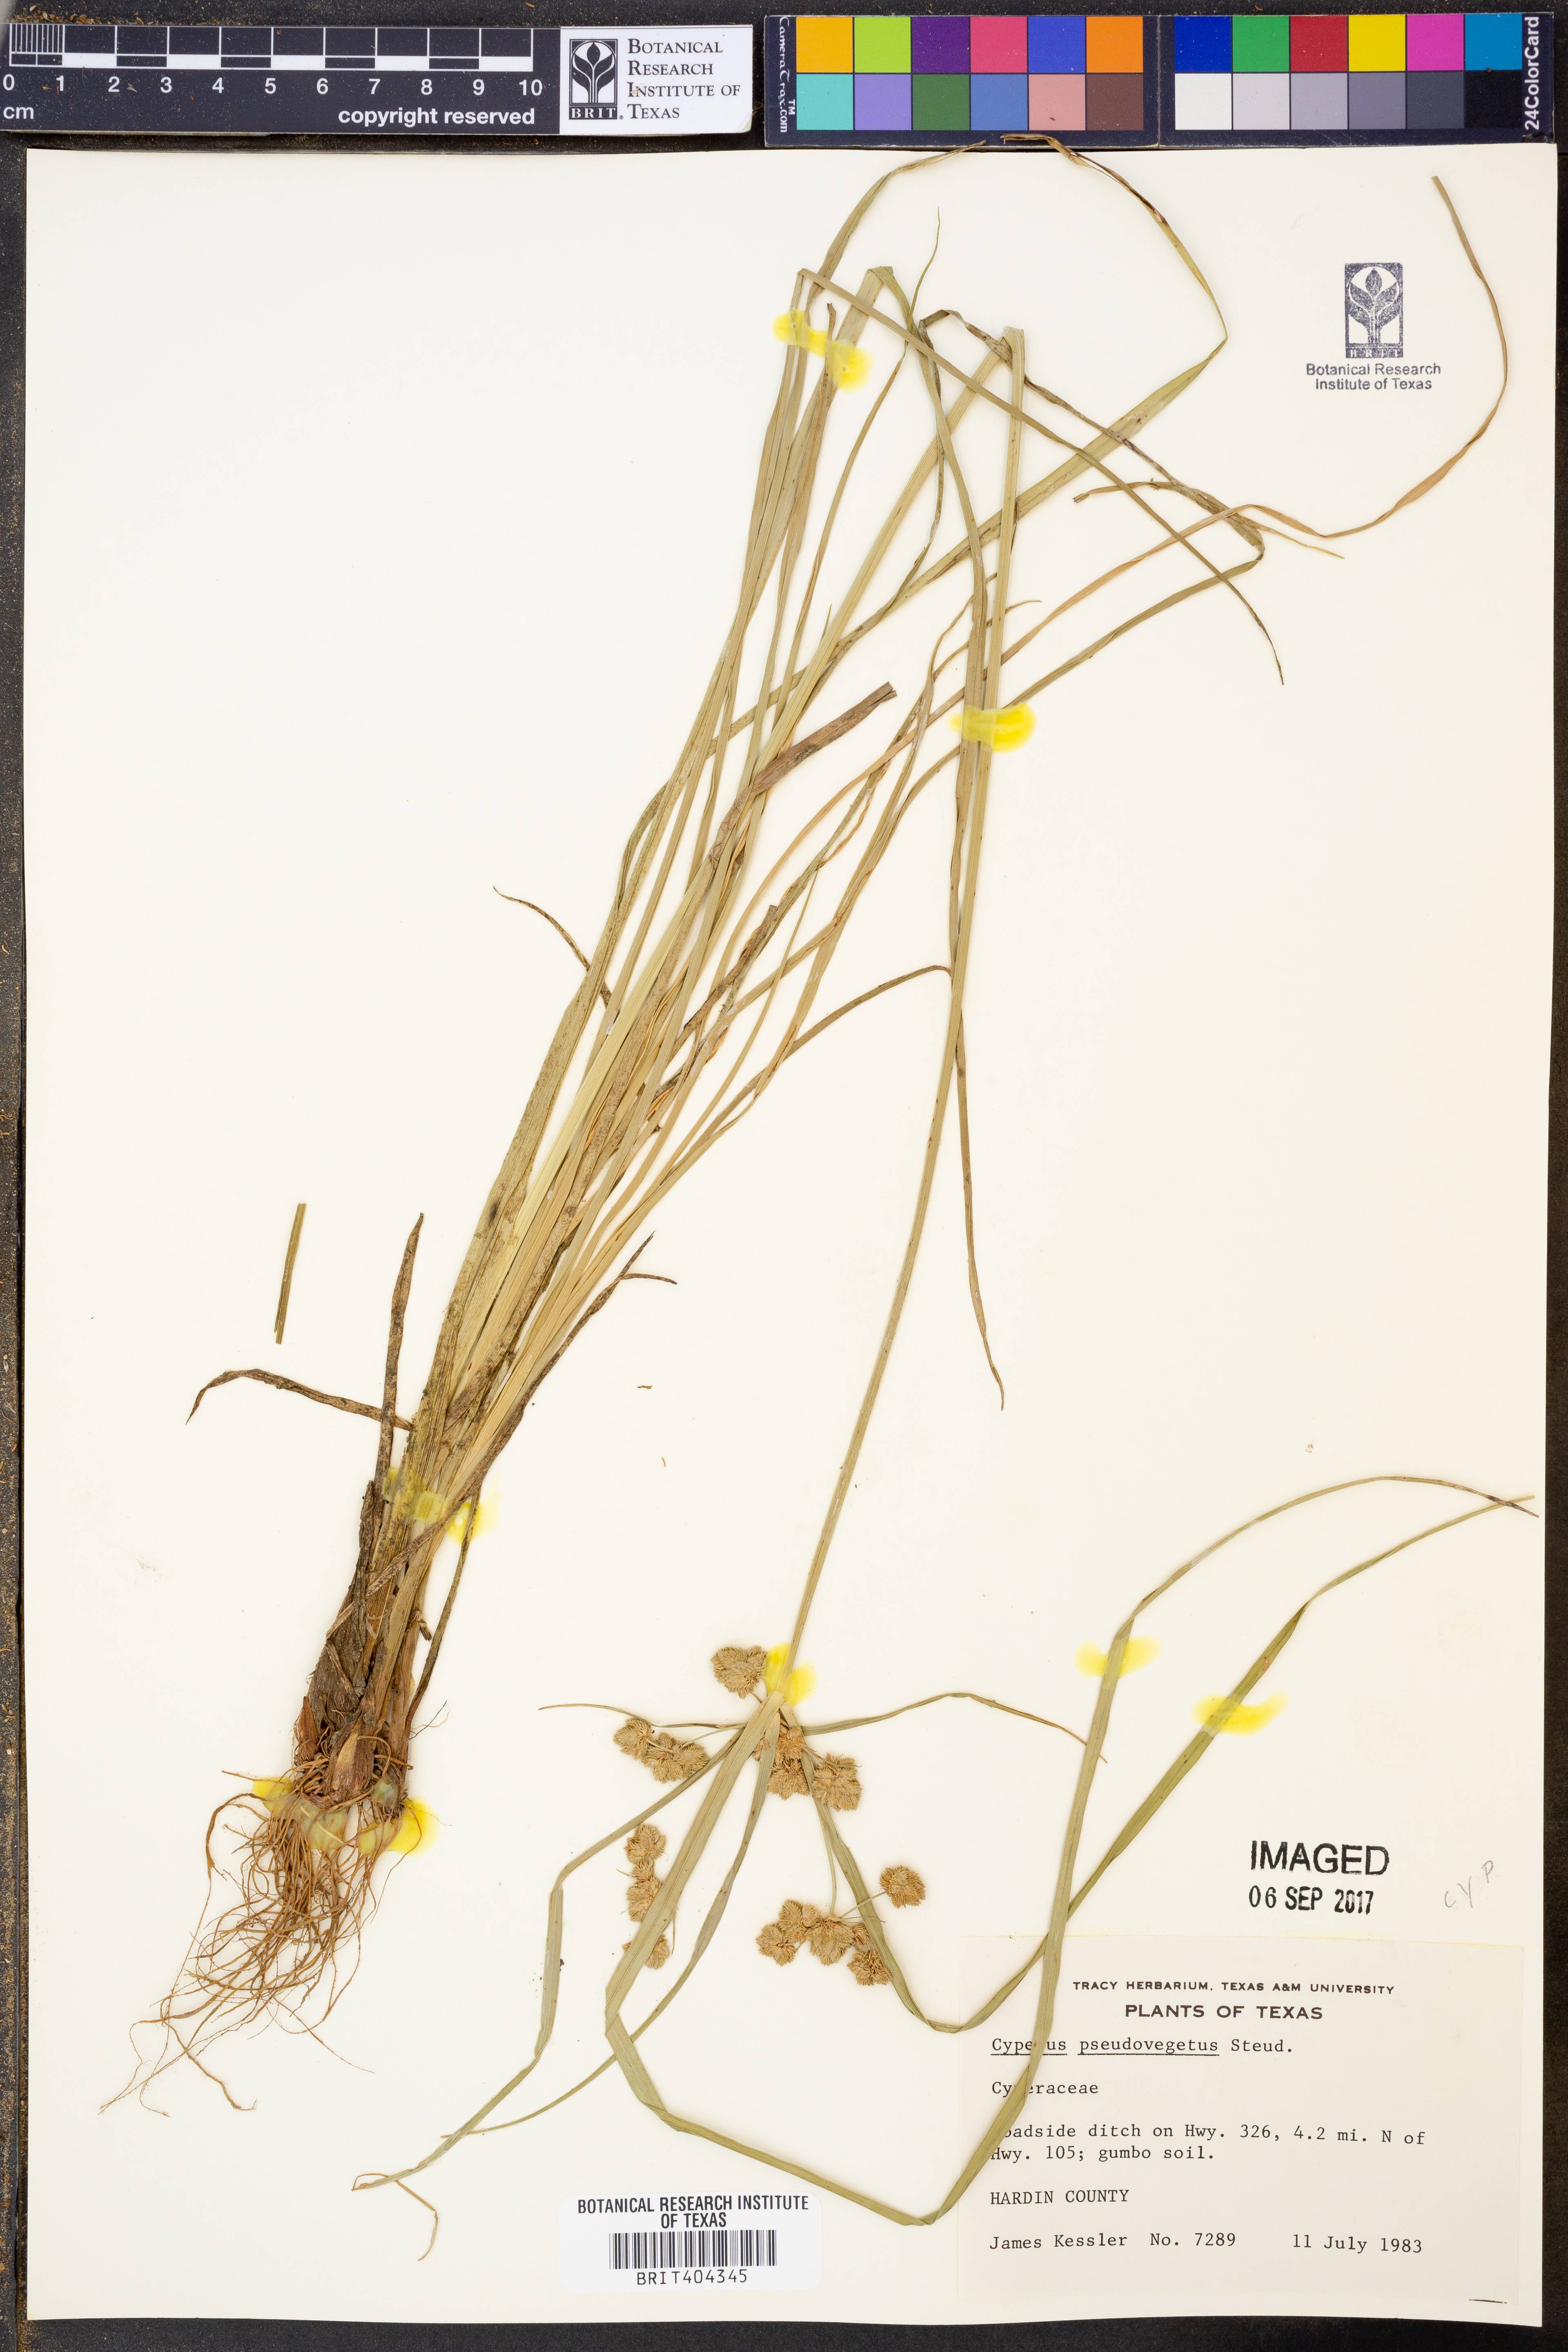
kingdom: Plantae
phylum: Tracheophyta
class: Liliopsida
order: Poales
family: Cyperaceae
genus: Cyperus
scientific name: Cyperus pseudovegetus
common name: Marsh flat sedge
